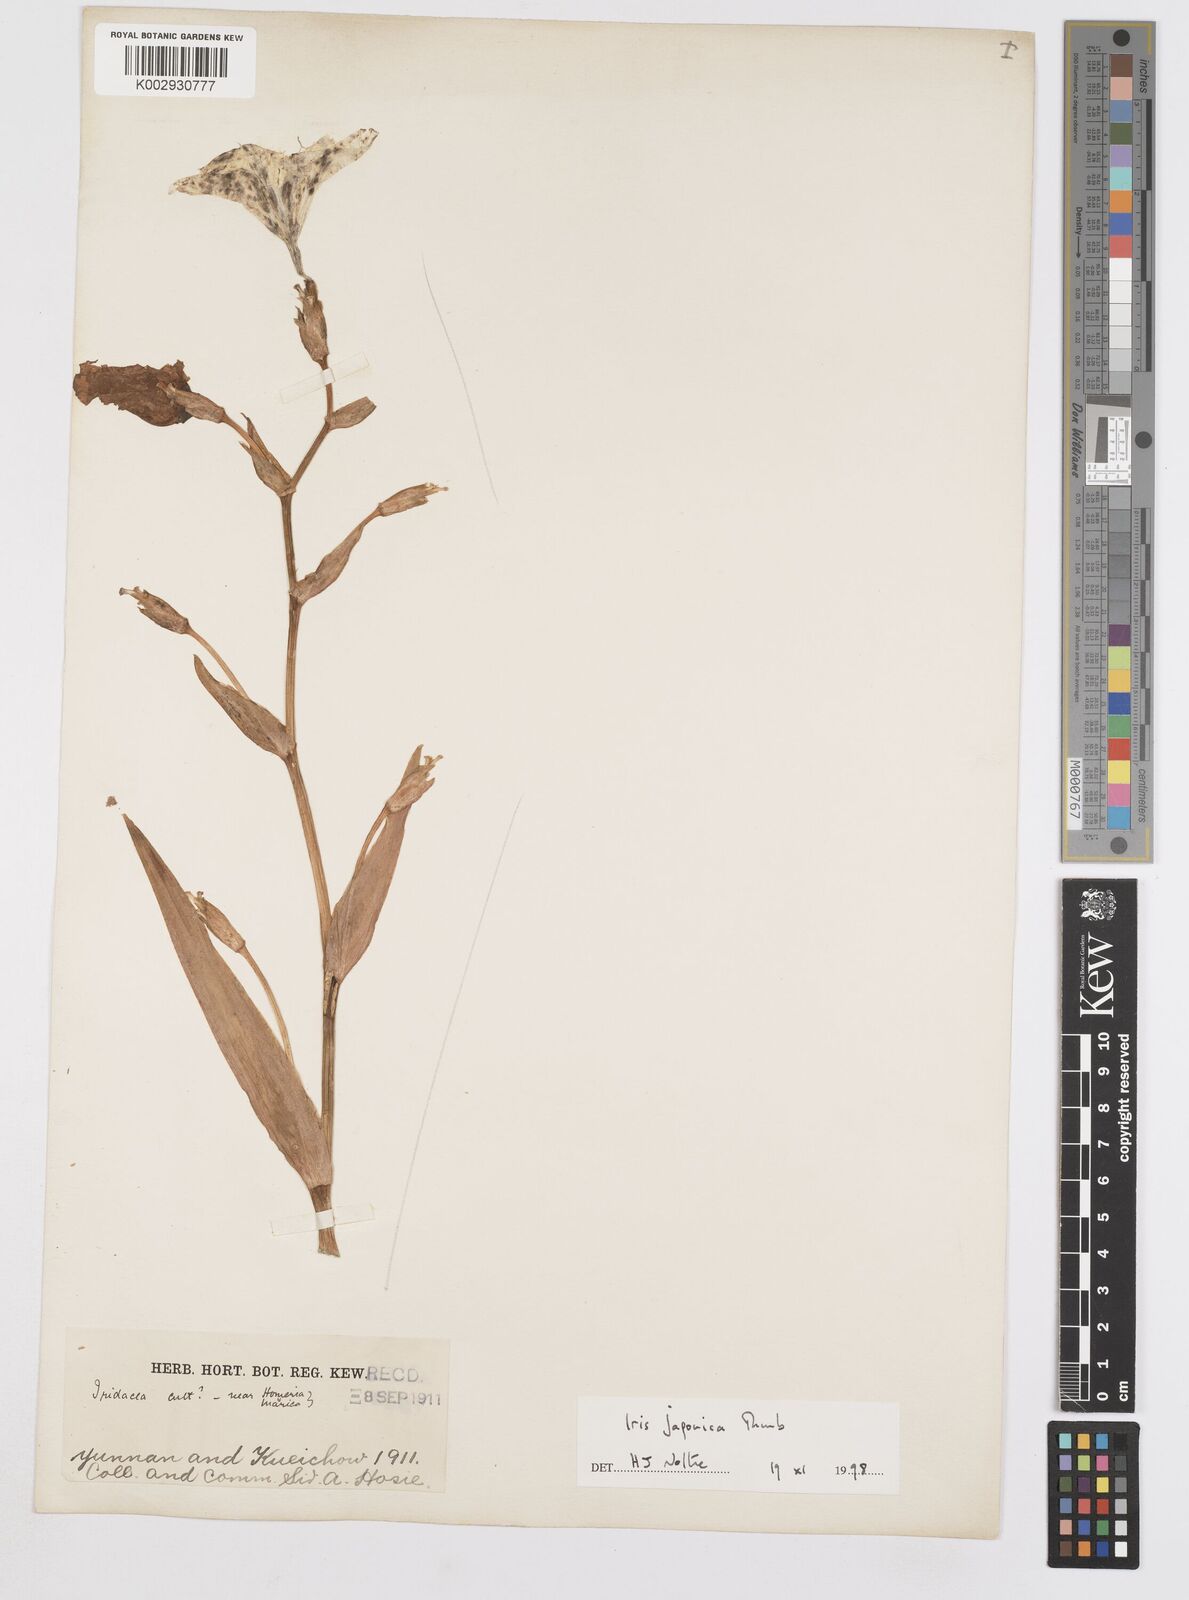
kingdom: Plantae
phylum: Tracheophyta
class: Liliopsida
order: Asparagales
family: Iridaceae
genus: Iris
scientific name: Iris japonica
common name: Butterfly-flower
